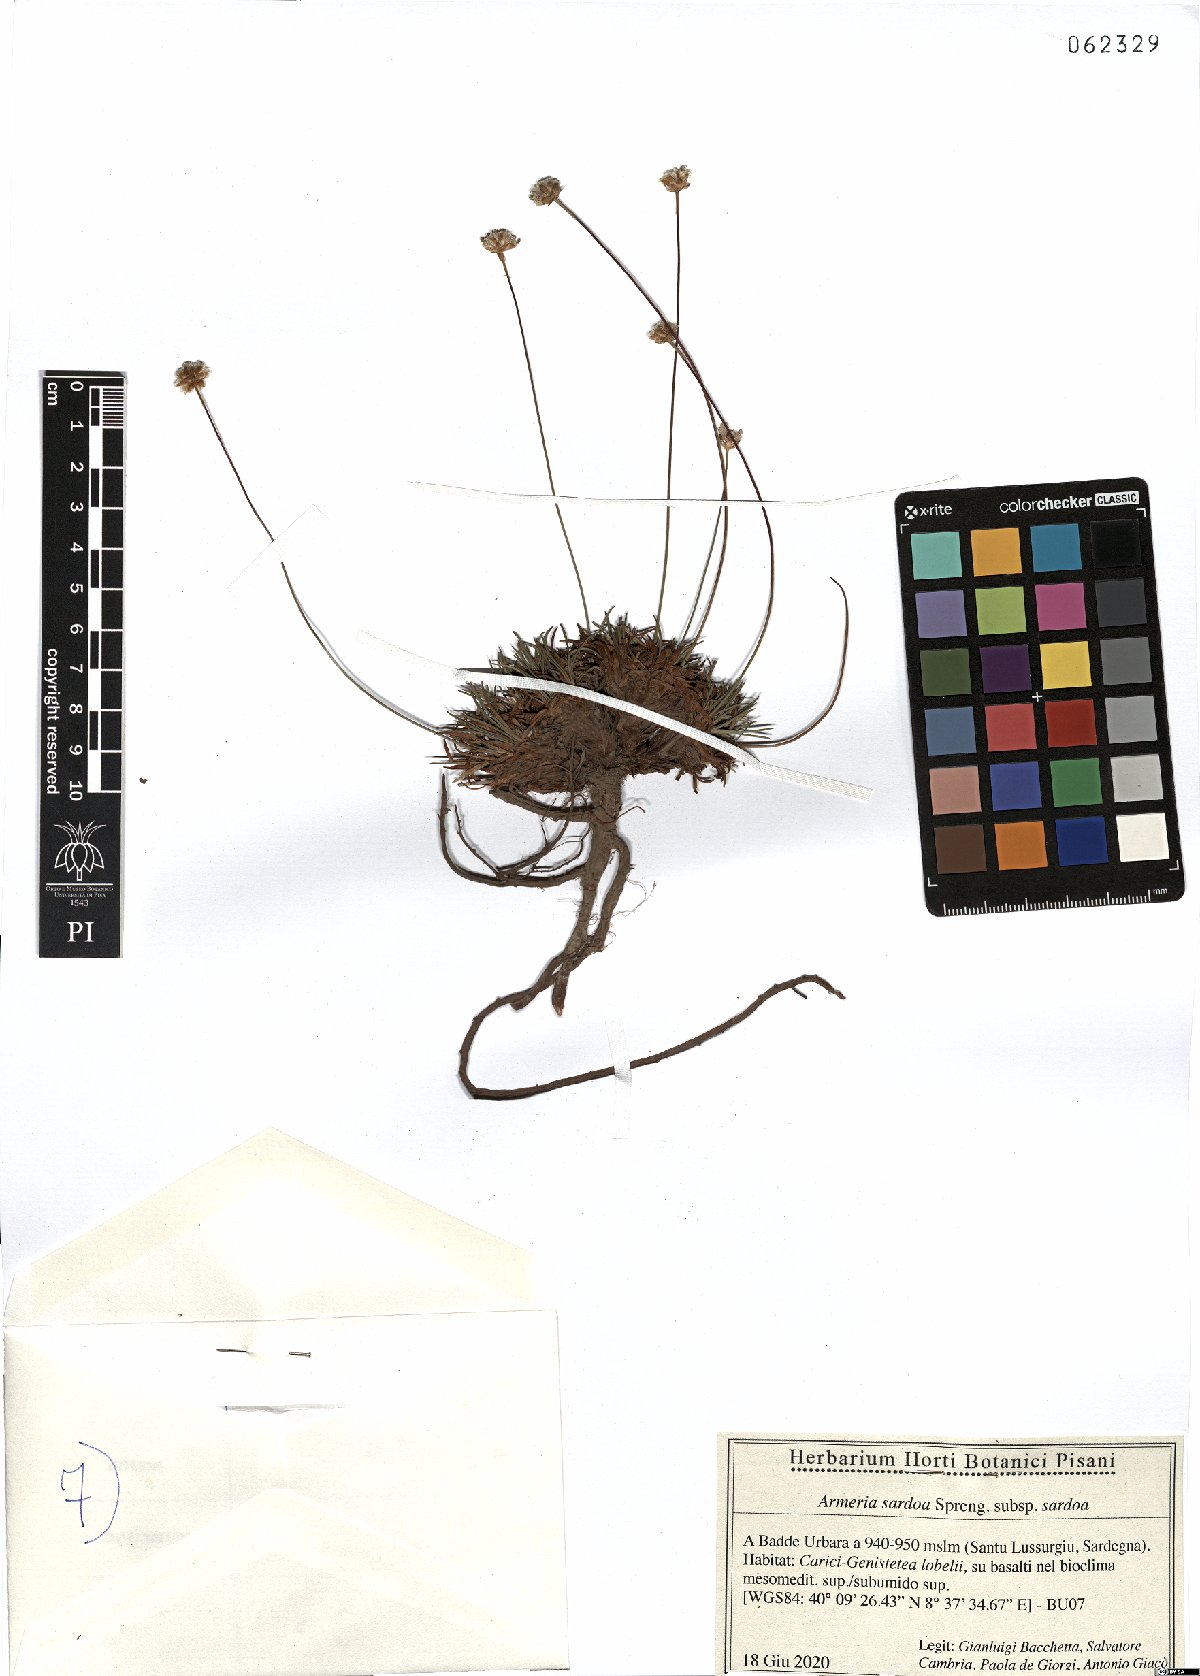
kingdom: Plantae
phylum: Tracheophyta
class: Magnoliopsida
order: Caryophyllales
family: Plumbaginaceae
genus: Armeria
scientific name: Armeria sardoa
